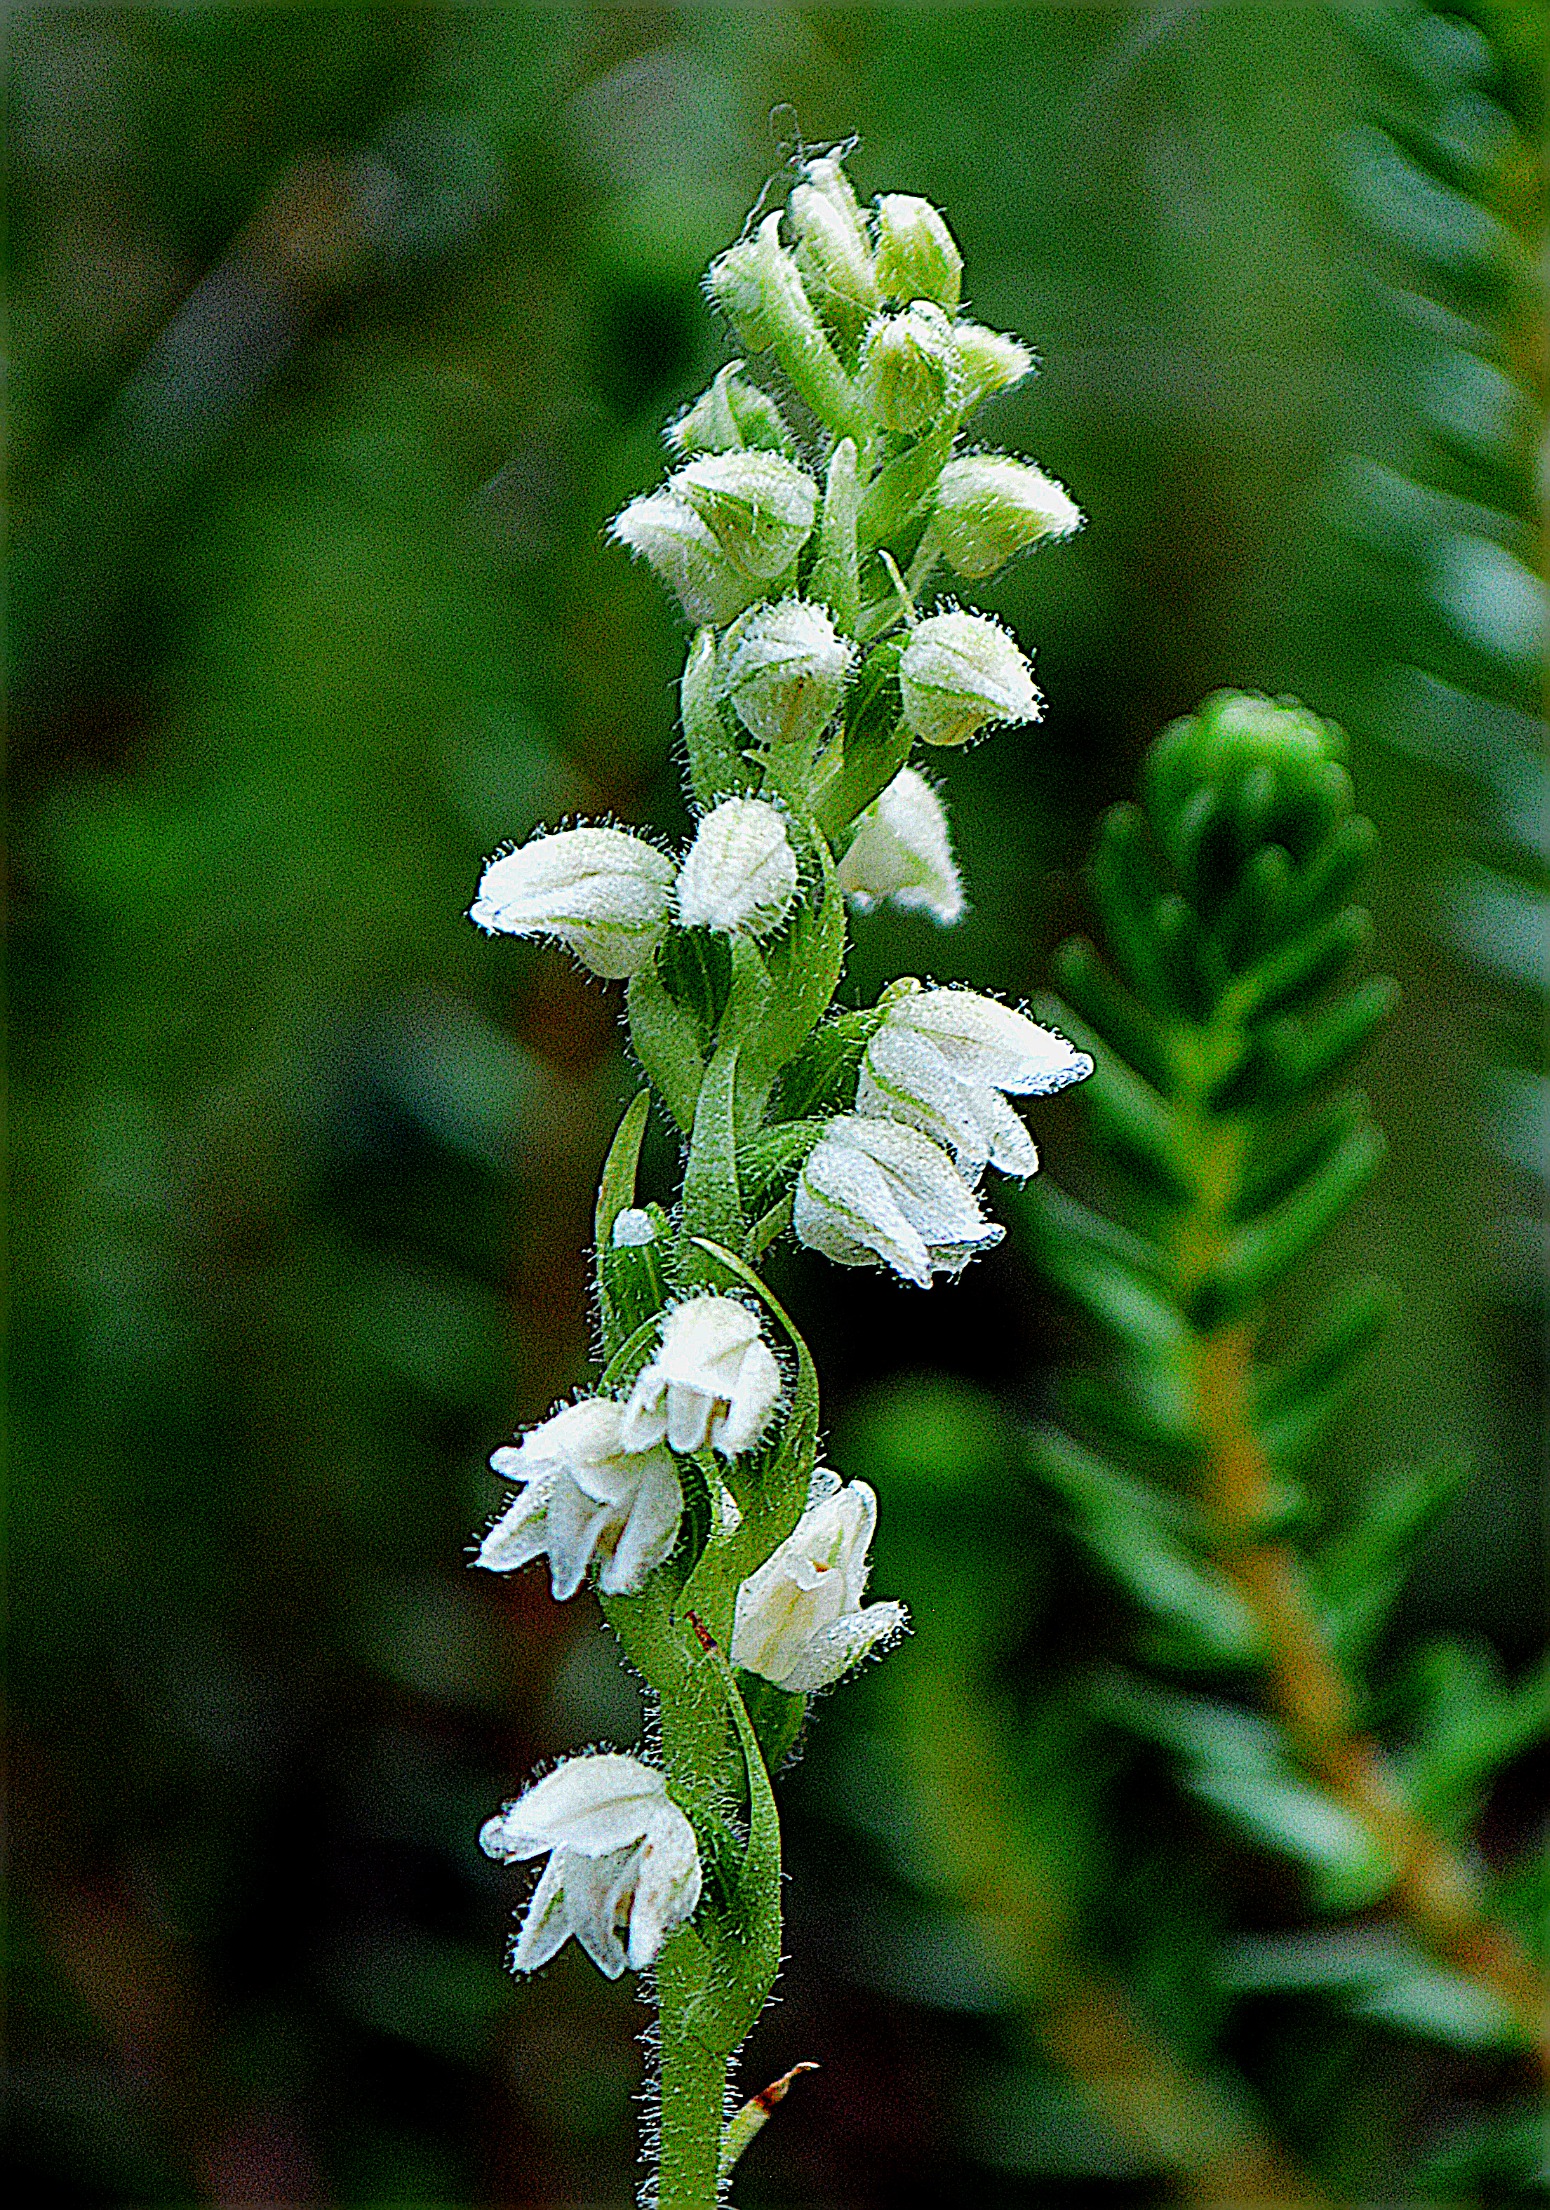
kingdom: Plantae
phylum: Tracheophyta
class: Liliopsida
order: Asparagales
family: Orchidaceae
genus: Goodyera
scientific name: Goodyera repens
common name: Knærod
